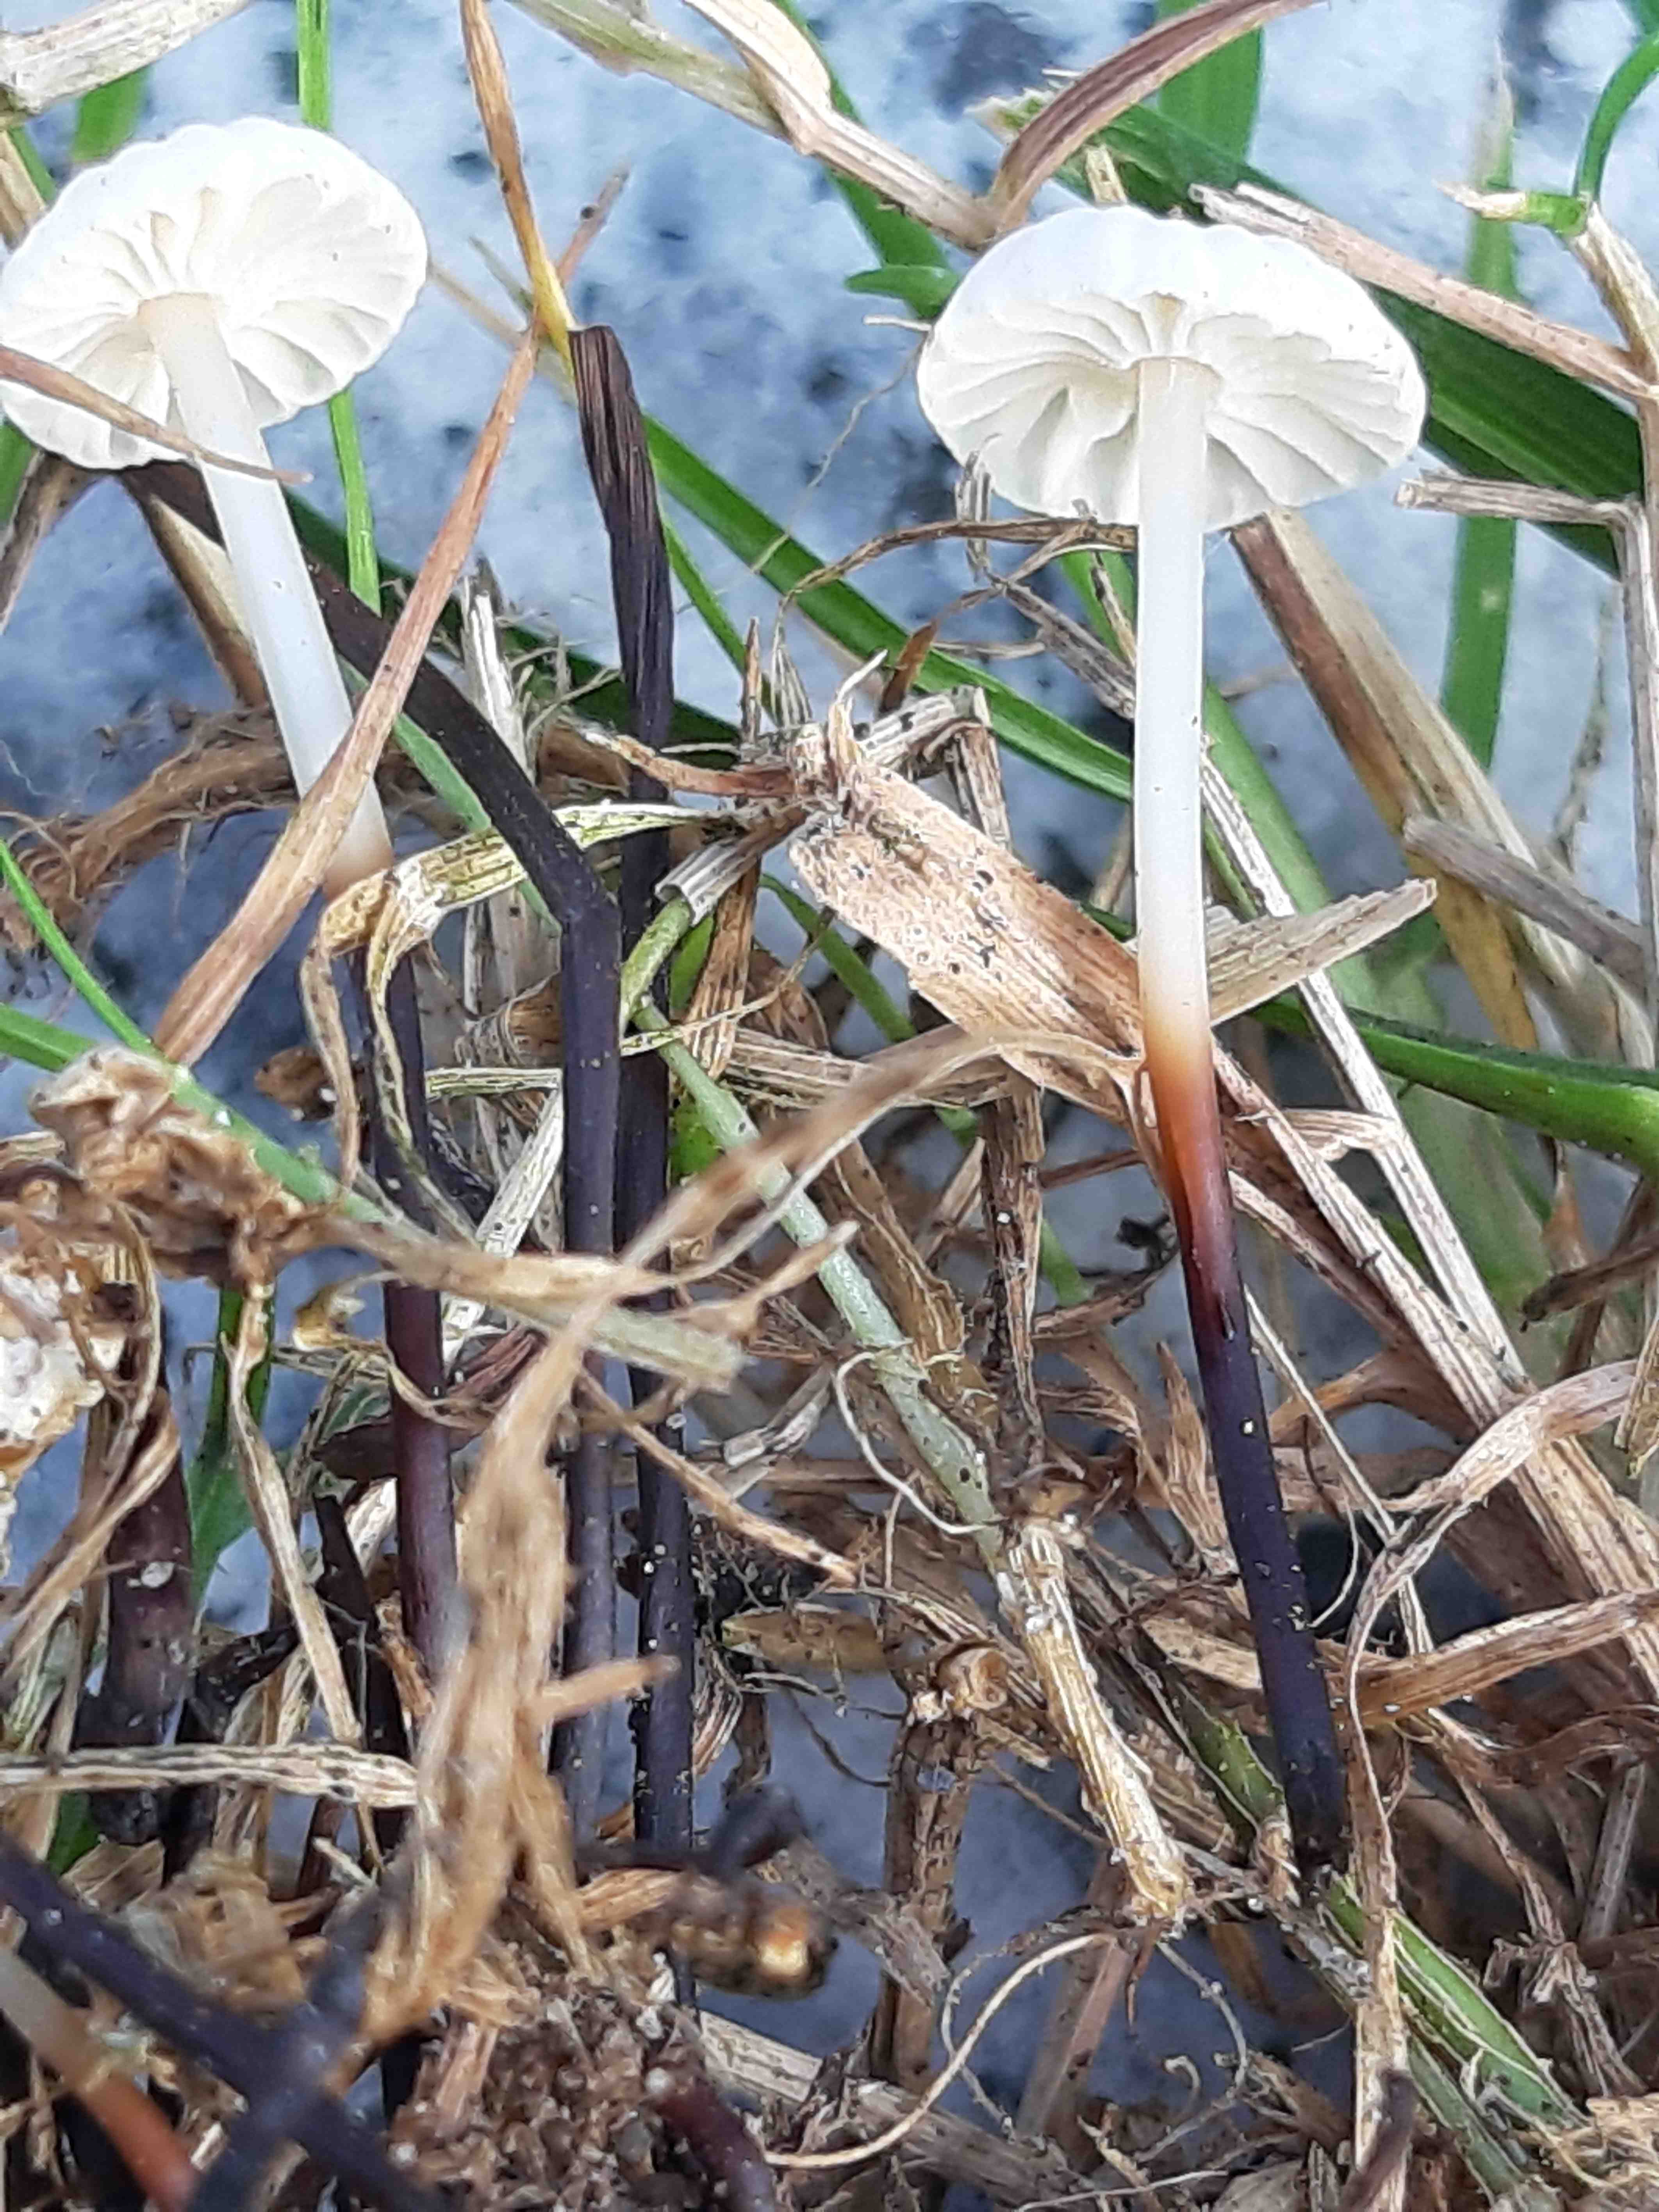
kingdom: Fungi
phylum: Basidiomycota
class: Agaricomycetes
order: Agaricales
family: Marasmiaceae
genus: Marasmius
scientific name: Marasmius rotula
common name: hjul-bruskhat
